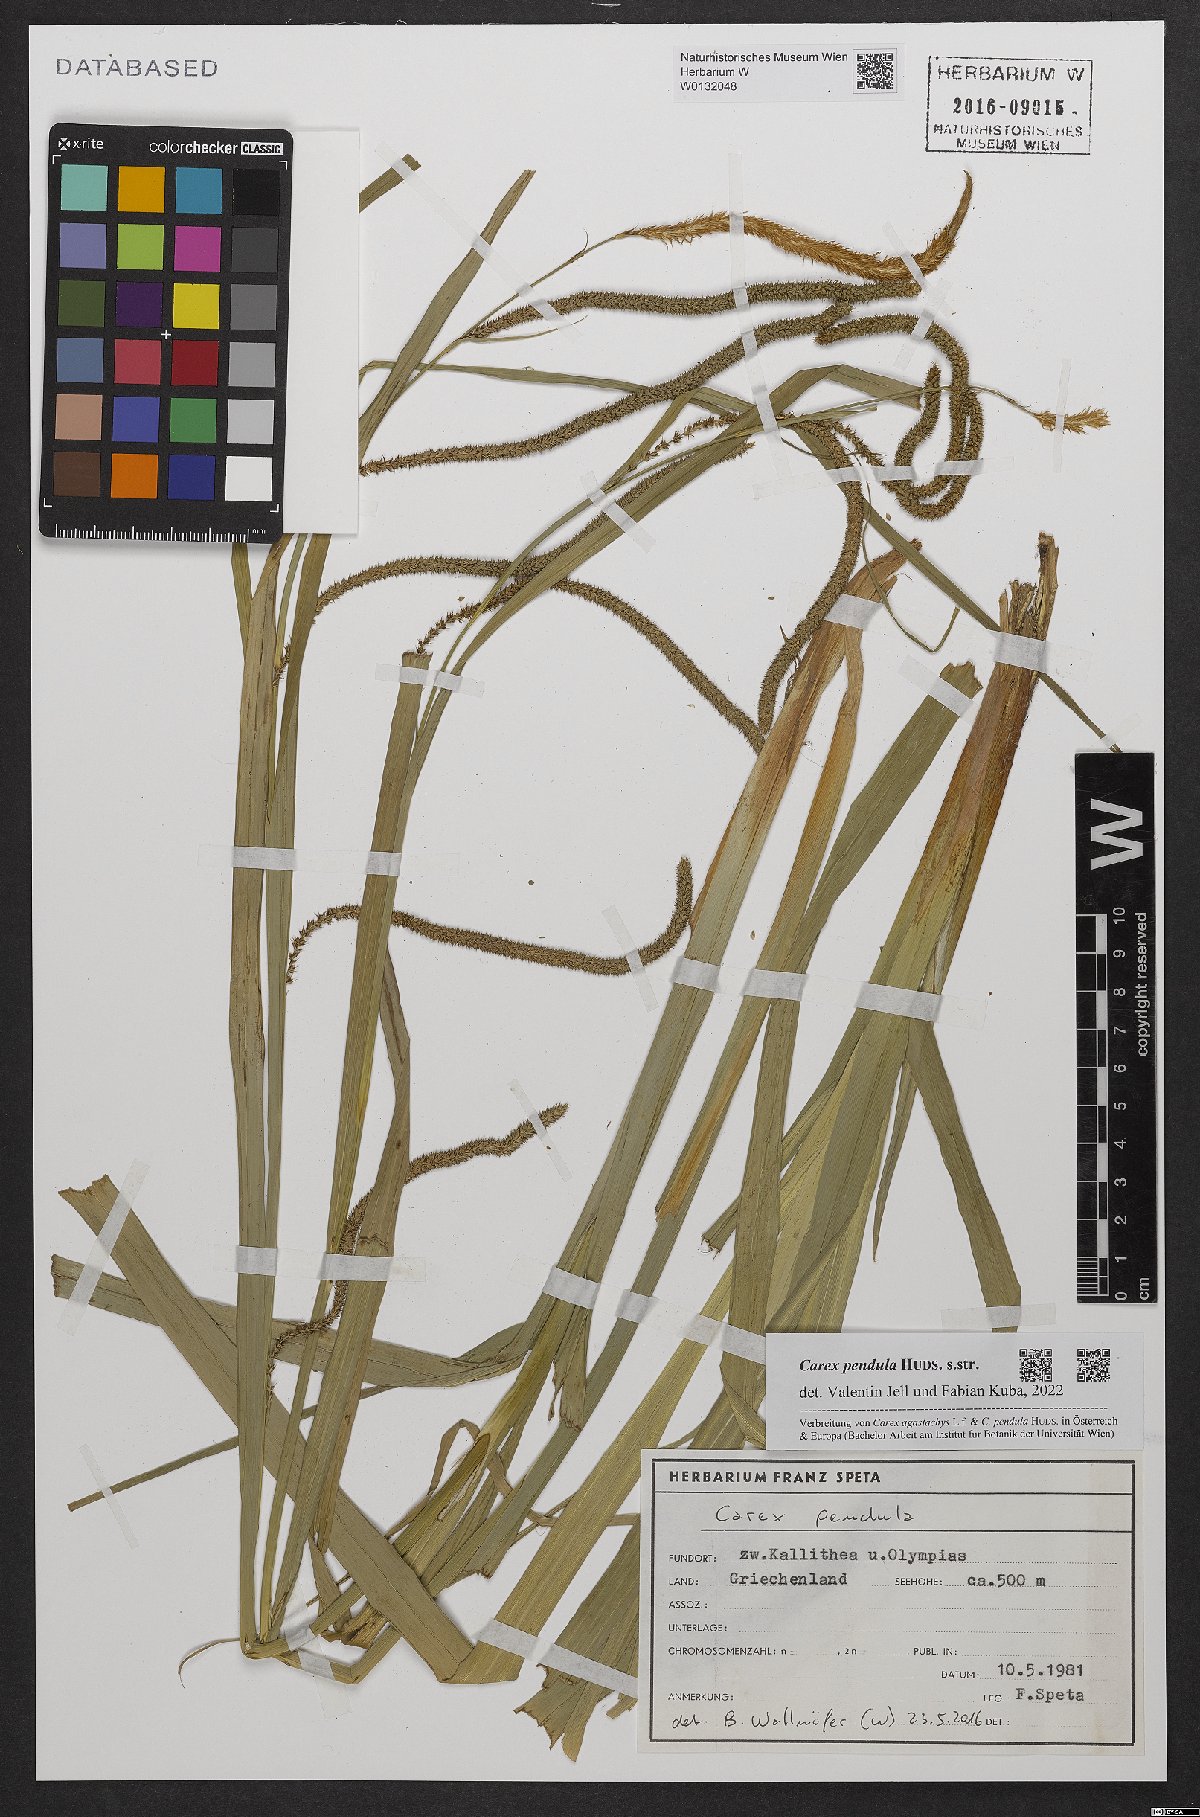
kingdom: Plantae
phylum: Tracheophyta
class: Liliopsida
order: Poales
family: Cyperaceae
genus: Carex
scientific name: Carex pendula
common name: Pendulous sedge
